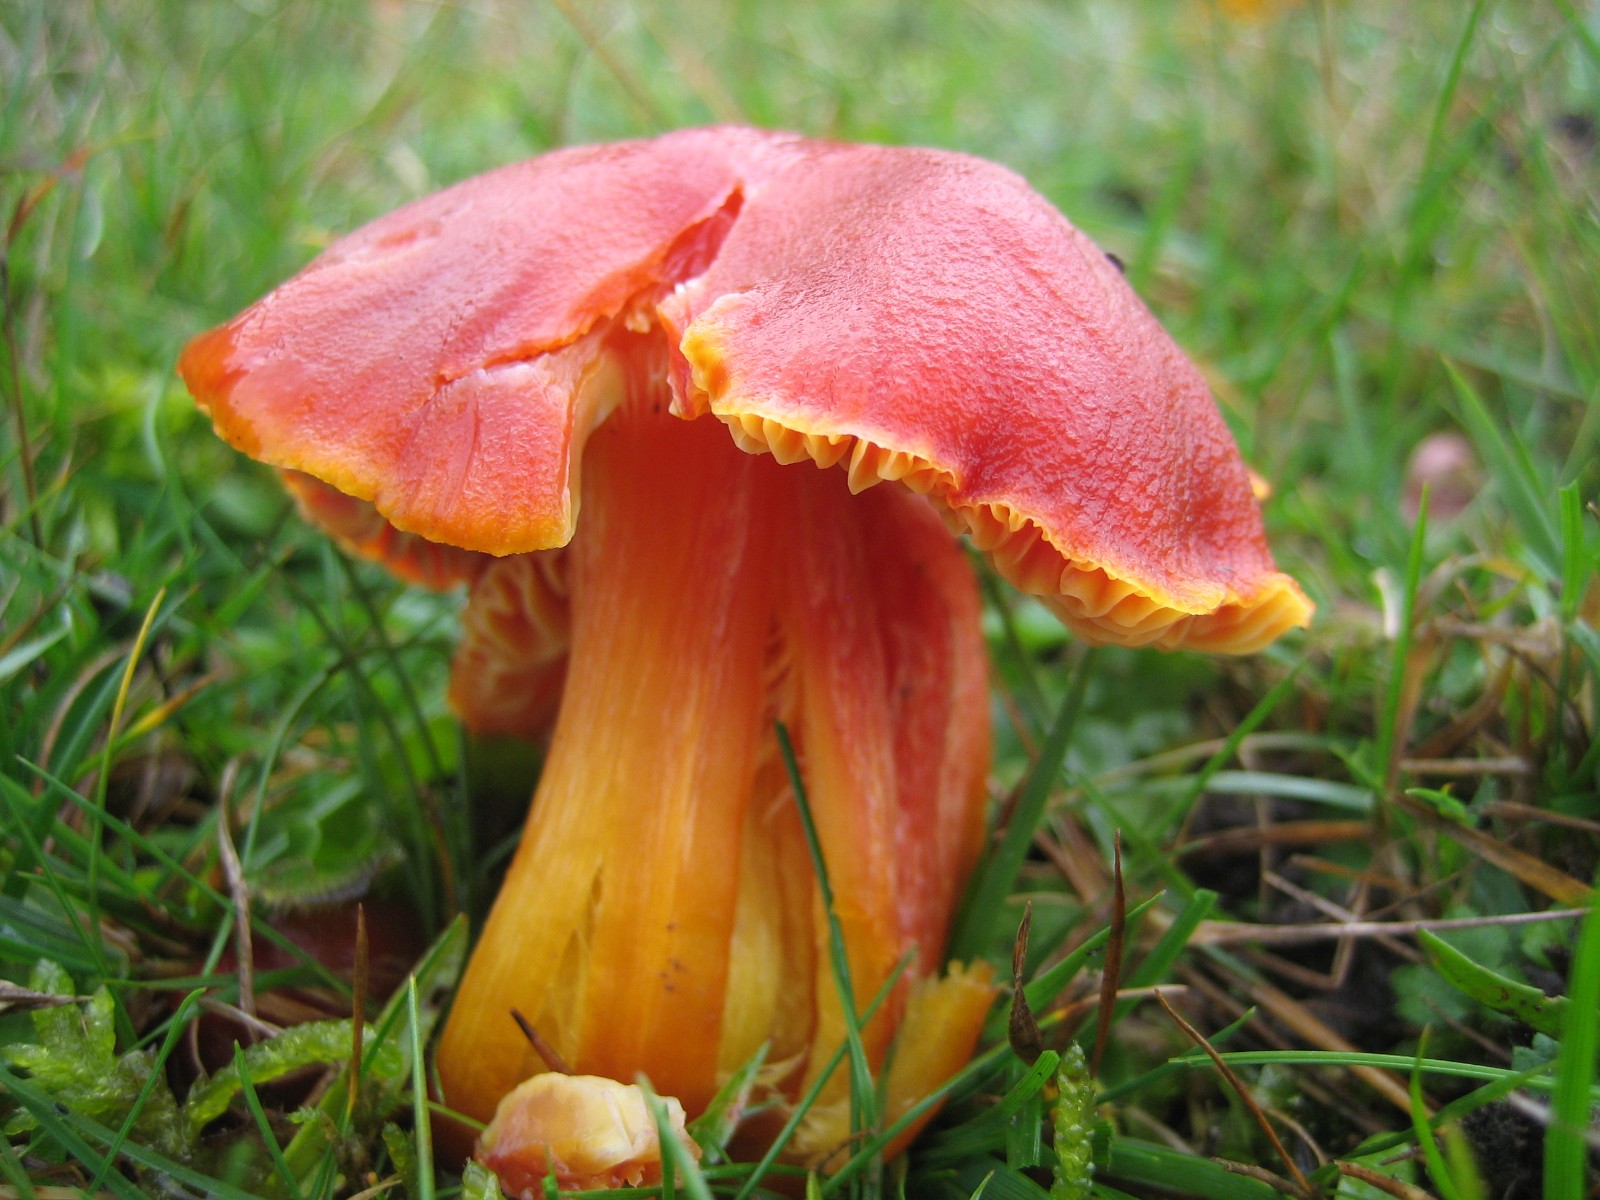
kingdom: Fungi
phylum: Basidiomycota
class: Agaricomycetes
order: Agaricales
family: Hygrophoraceae
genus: Hygrocybe
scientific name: Hygrocybe punicea
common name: skarlagen-vokshat
